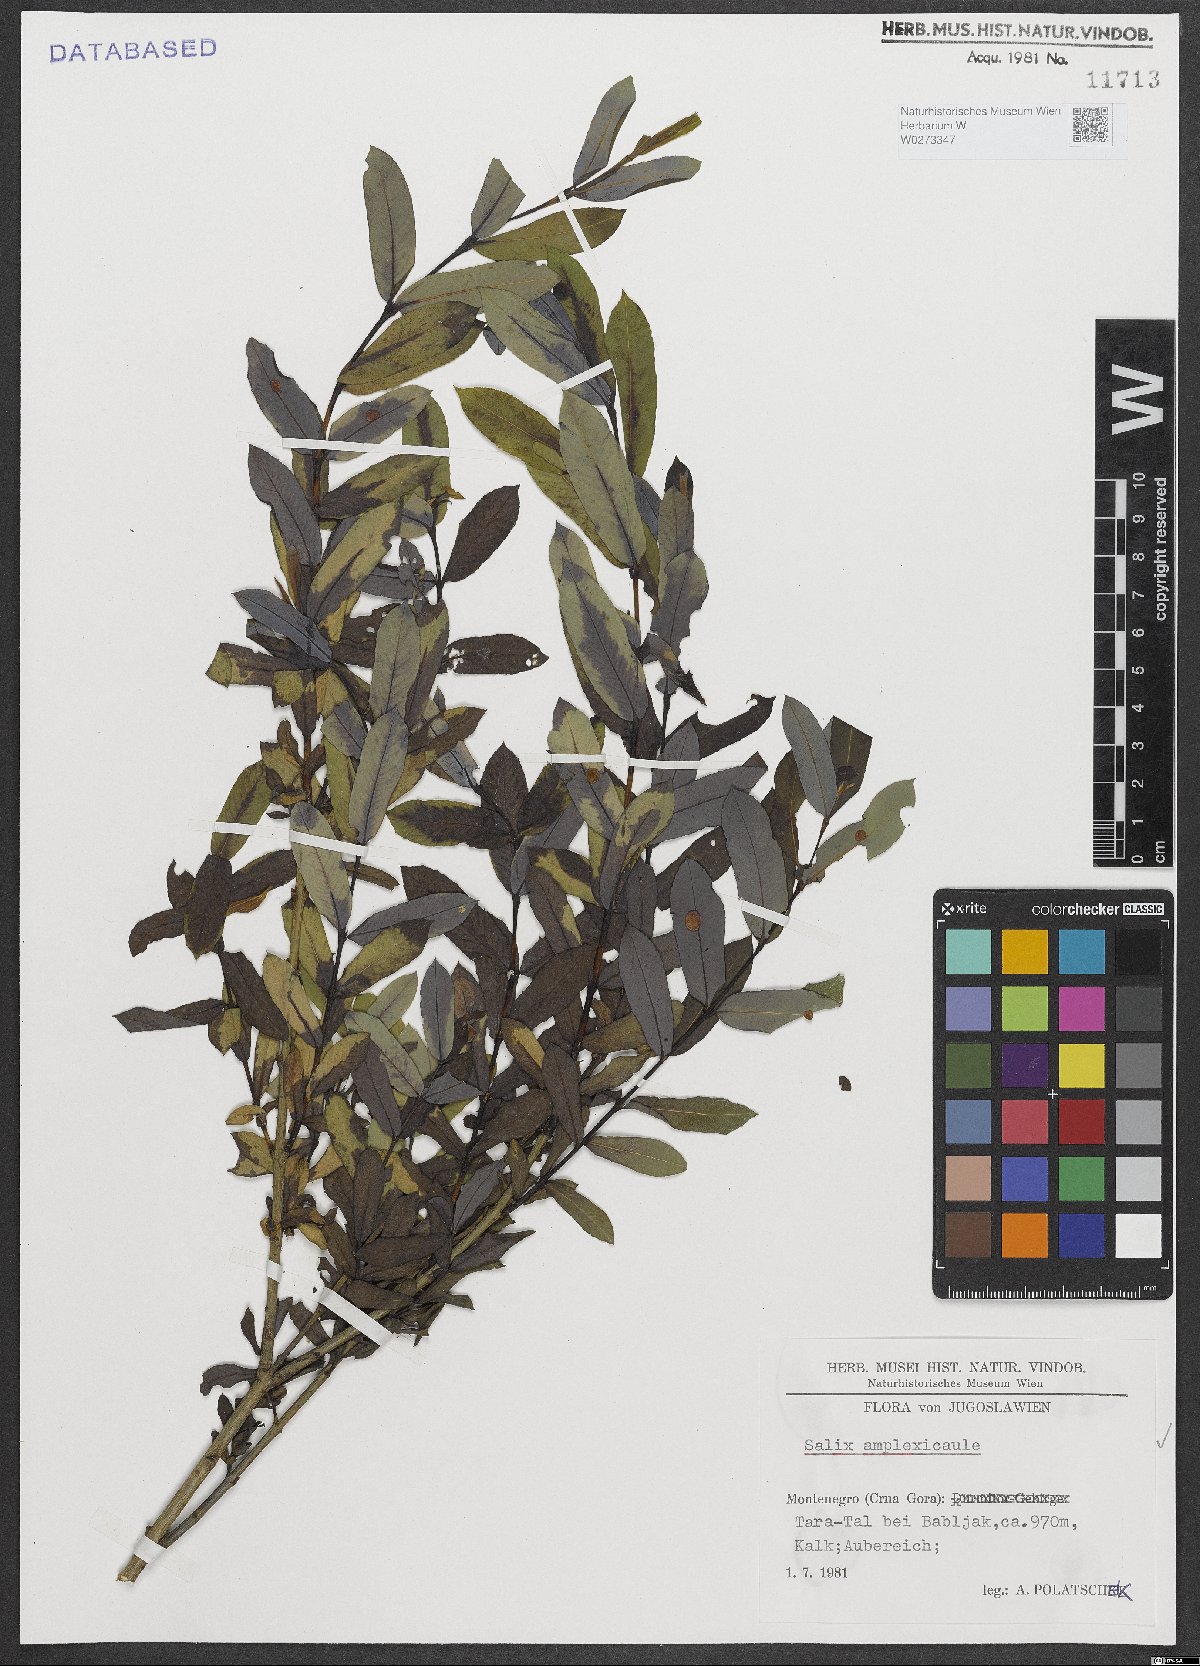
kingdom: Plantae
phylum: Tracheophyta
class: Magnoliopsida
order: Malpighiales
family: Salicaceae
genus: Salix
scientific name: Salix amplexicaulis
